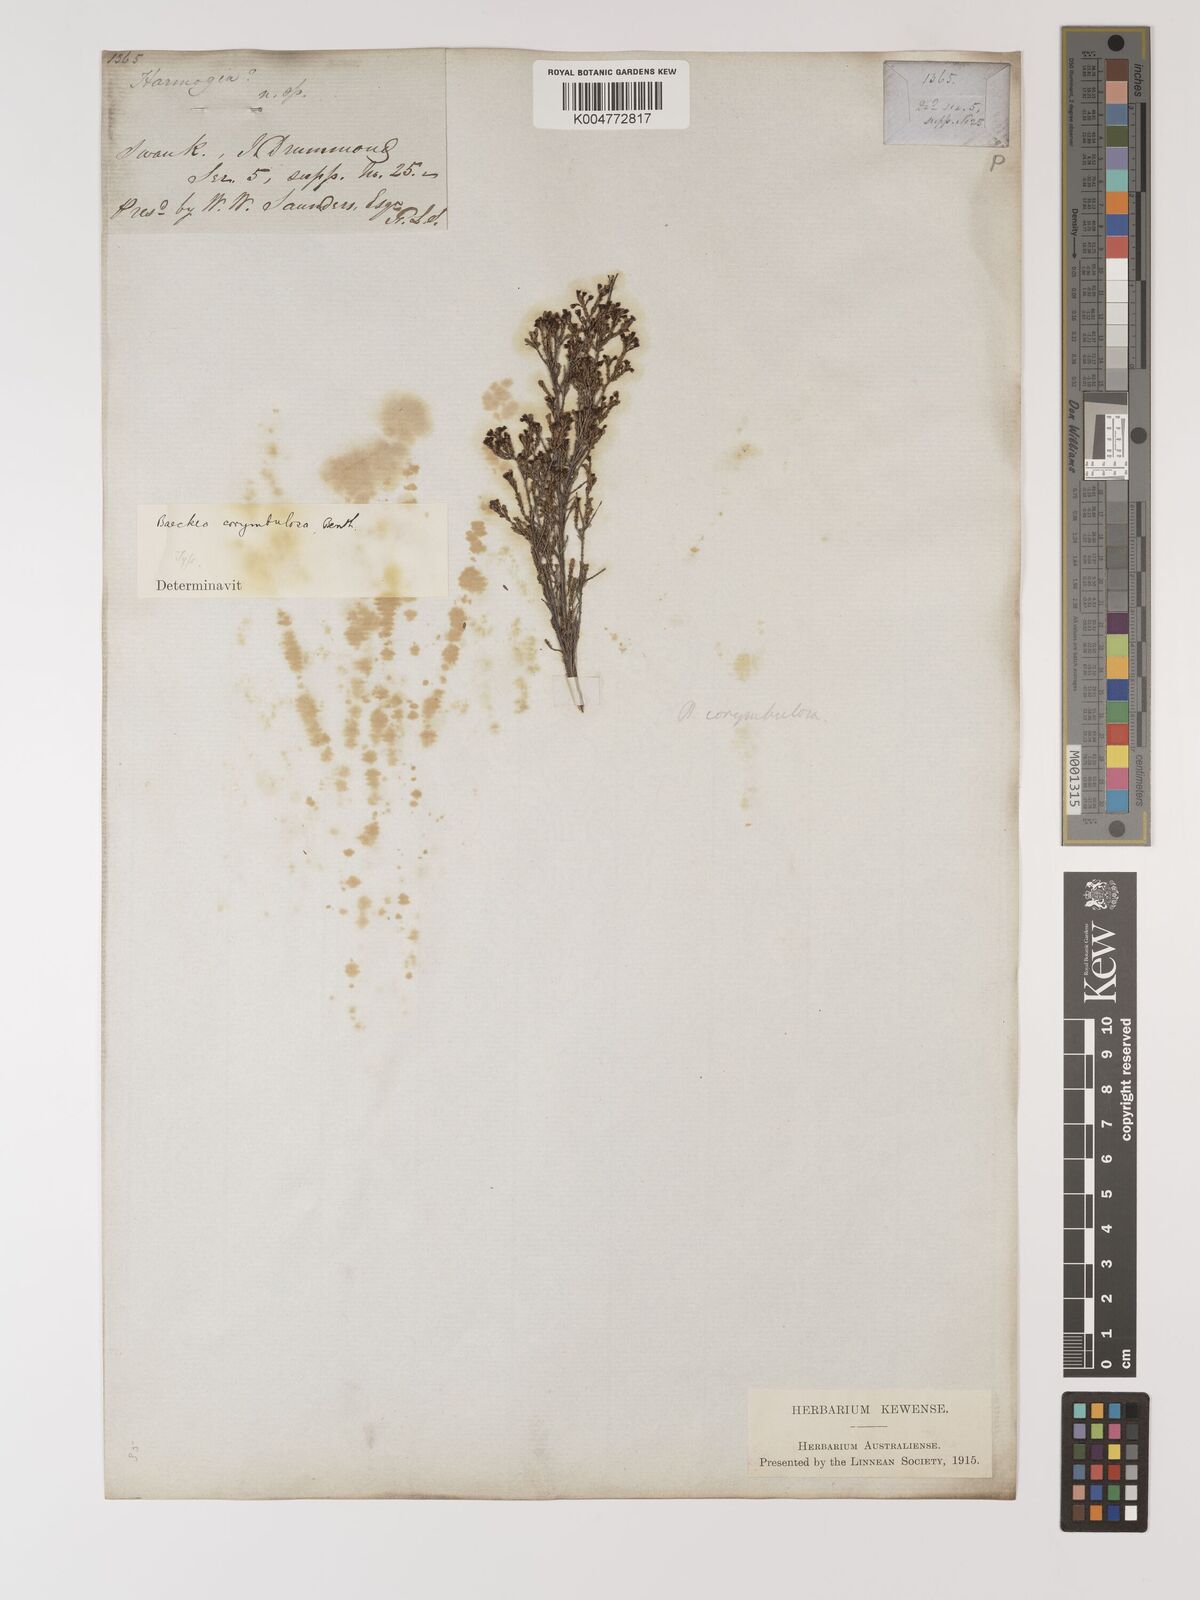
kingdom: Plantae
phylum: Tracheophyta
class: Magnoliopsida
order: Myrtales
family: Myrtaceae
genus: Ericomyrtus
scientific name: Ericomyrtus parviflora
